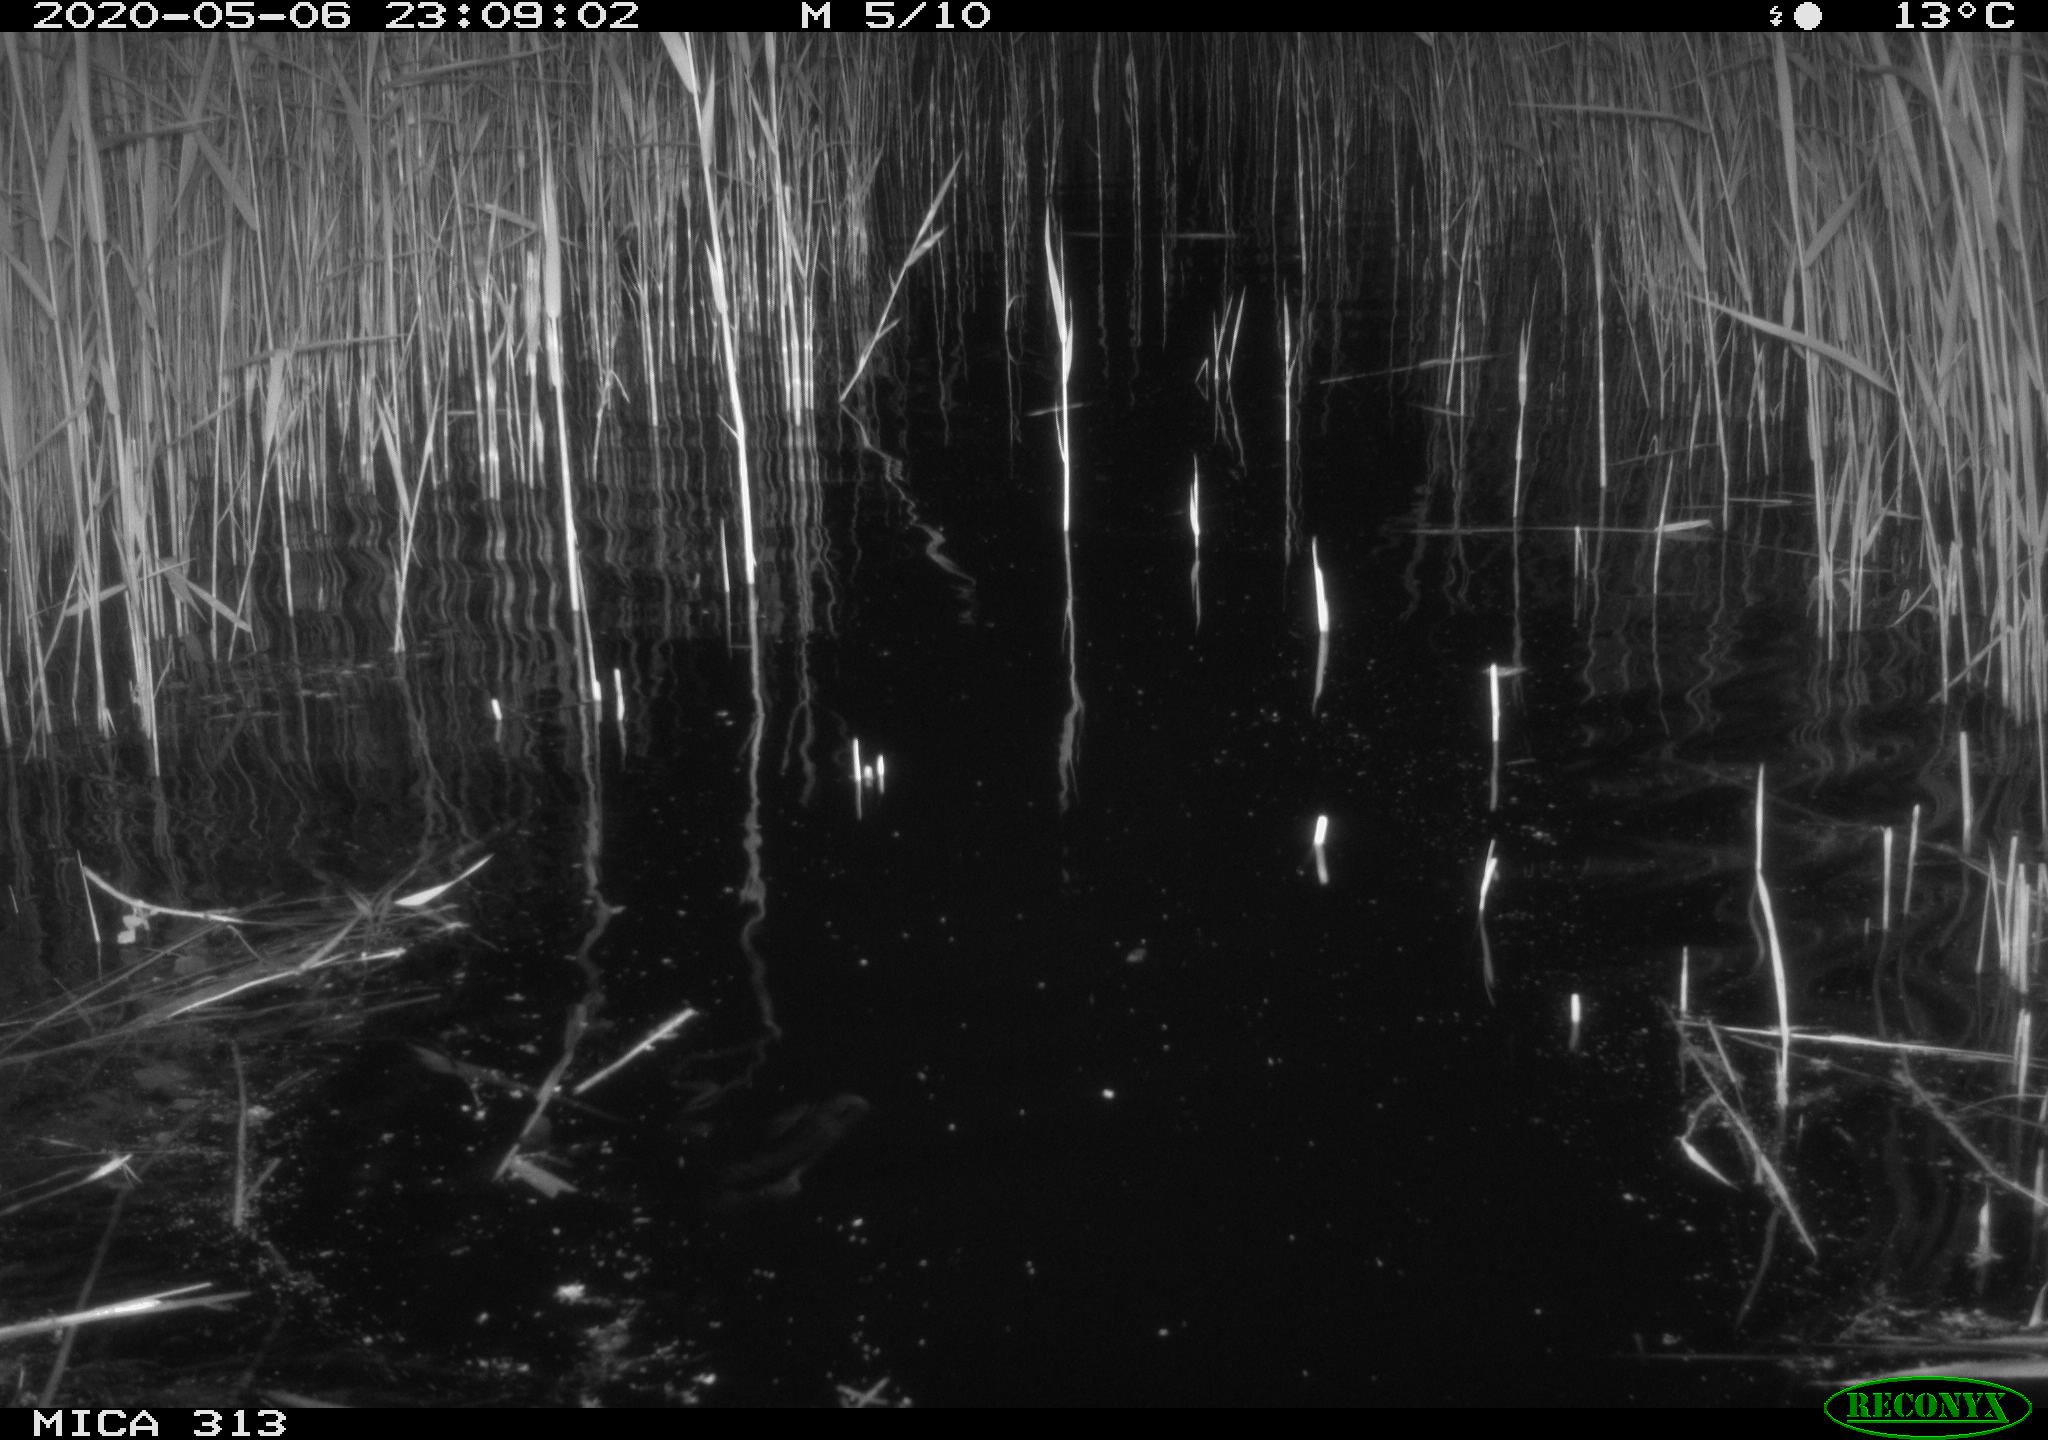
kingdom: Animalia
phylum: Chordata
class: Mammalia
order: Rodentia
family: Cricetidae
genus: Ondatra
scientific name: Ondatra zibethicus
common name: Muskrat
